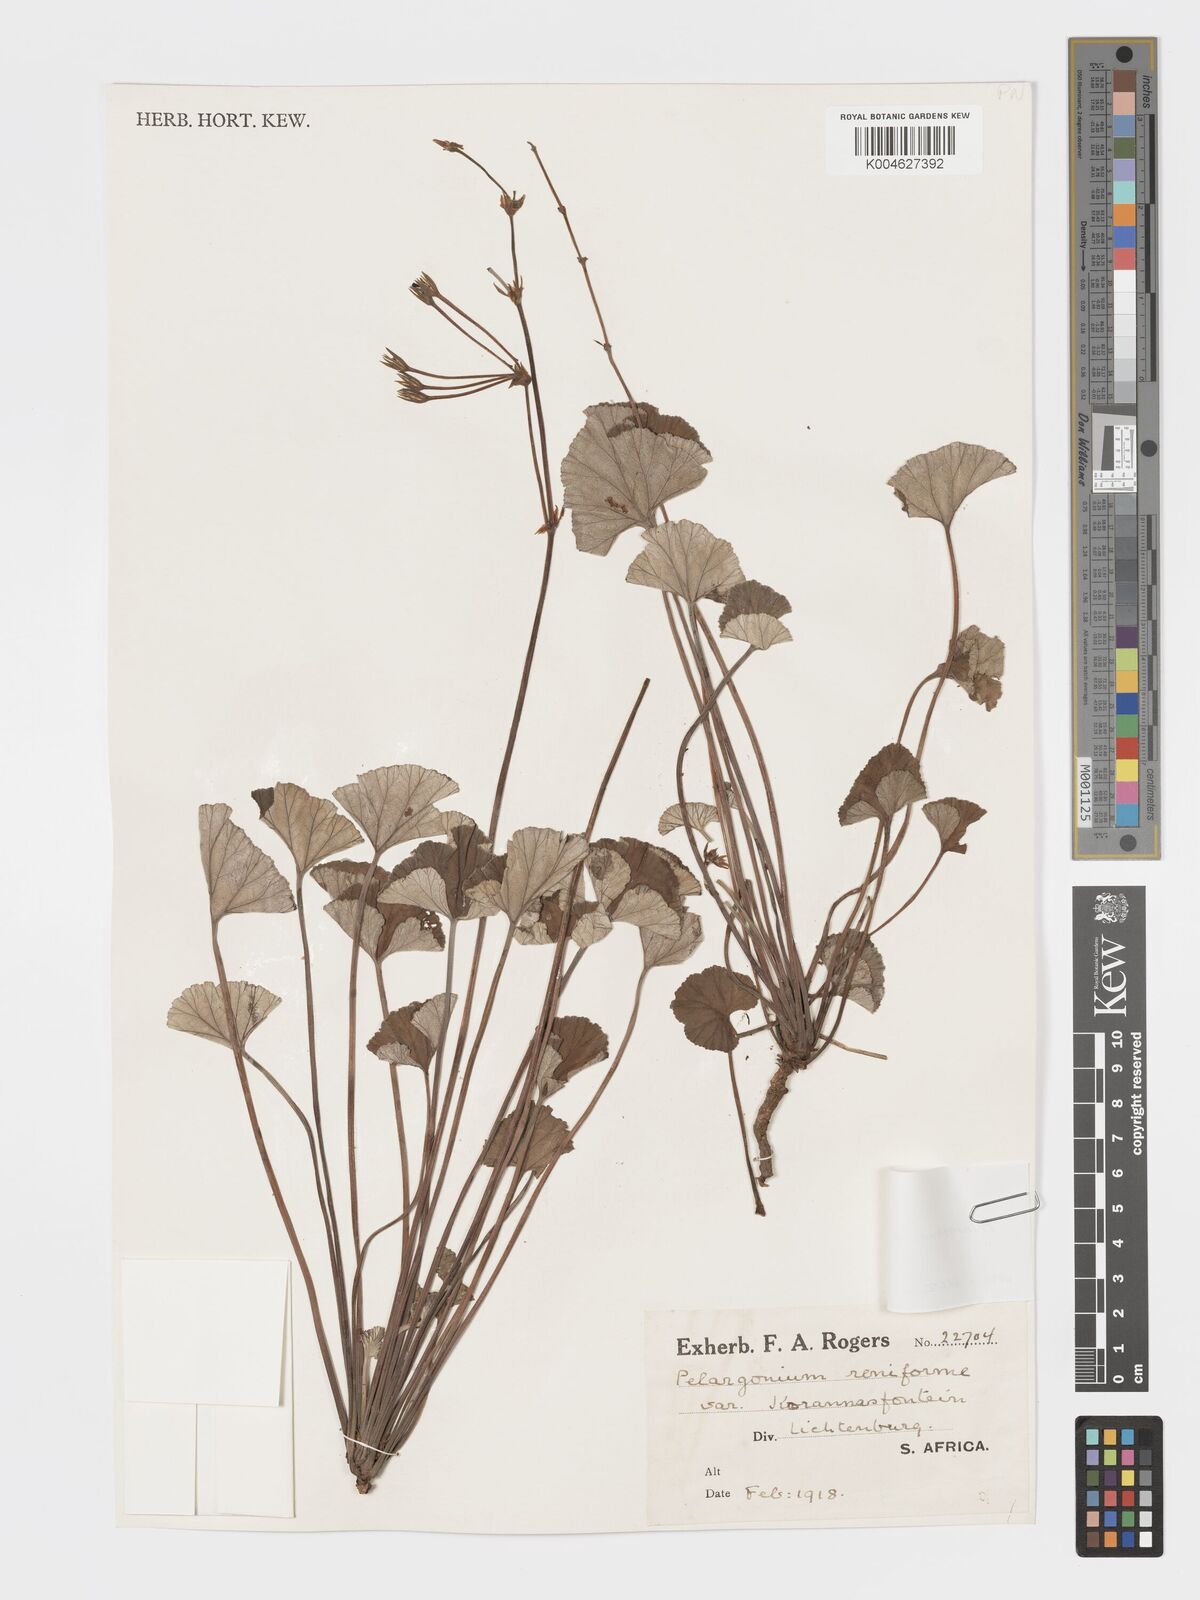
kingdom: Plantae
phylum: Tracheophyta
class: Magnoliopsida
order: Geraniales
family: Geraniaceae
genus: Pelargonium
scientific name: Pelargonium sidoides
